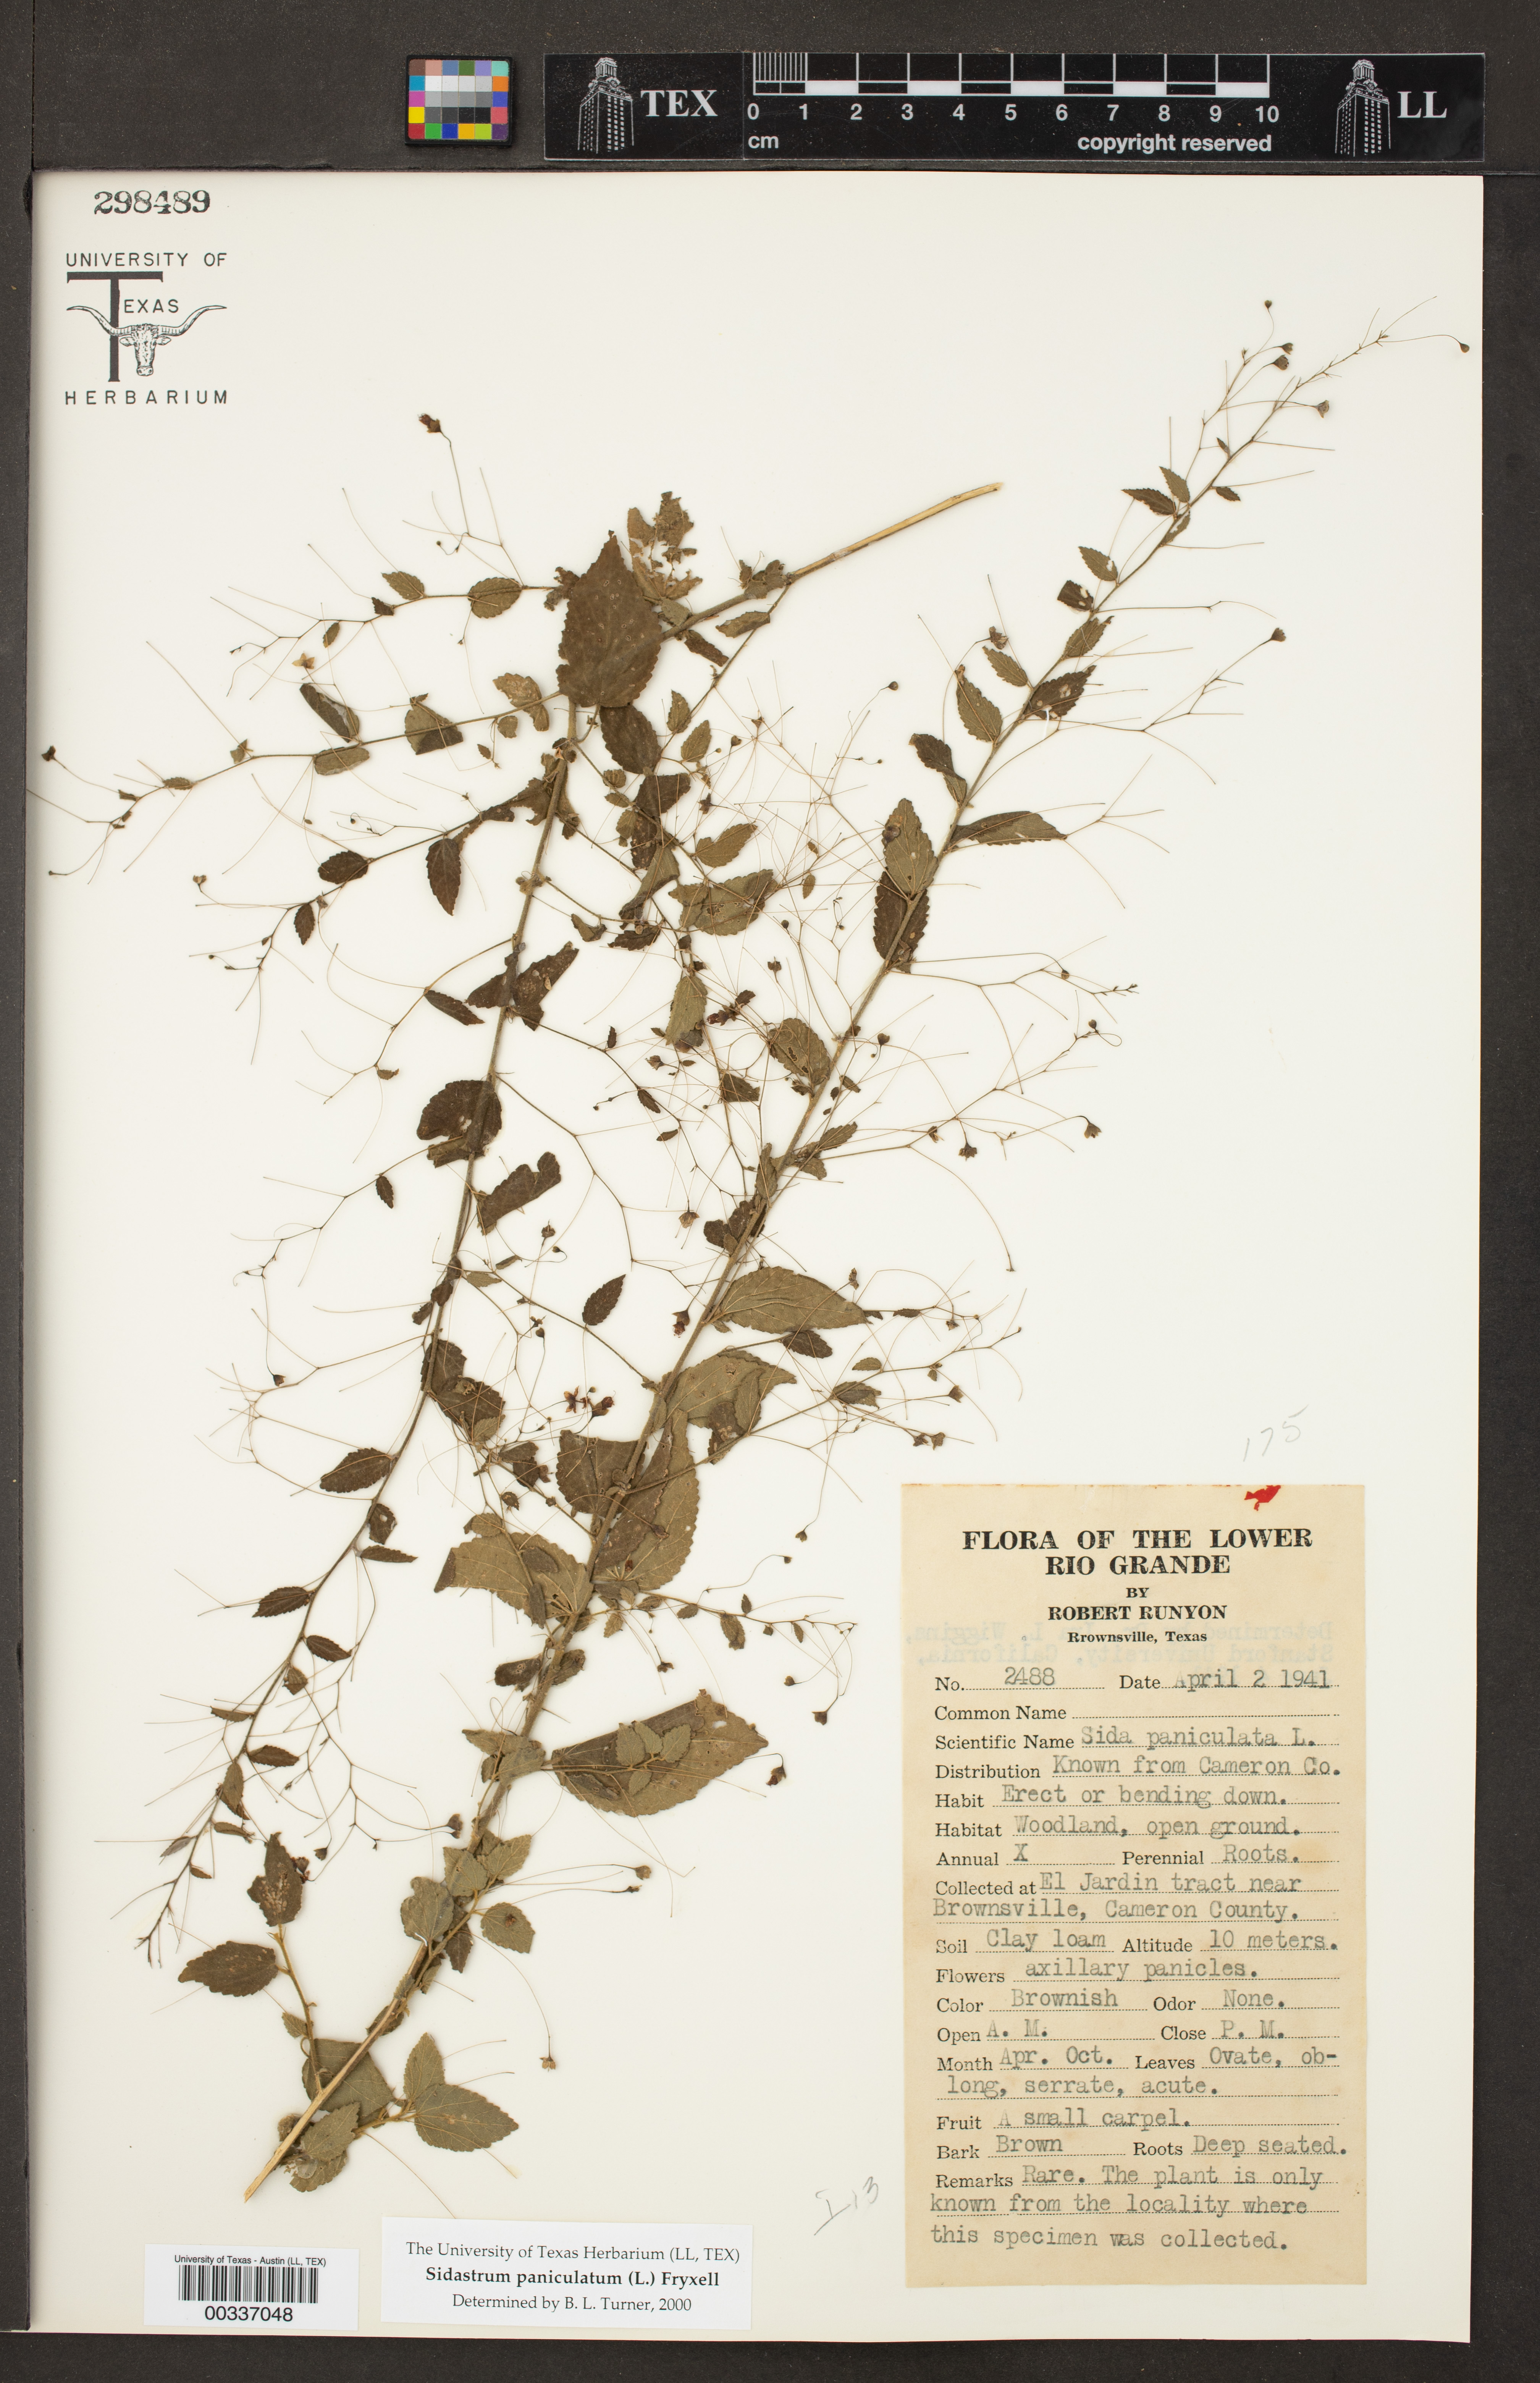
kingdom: Plantae
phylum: Tracheophyta
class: Magnoliopsida
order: Malvales
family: Malvaceae
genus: Sidastrum
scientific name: Sidastrum paniculatum
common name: Panicled sandmallow
